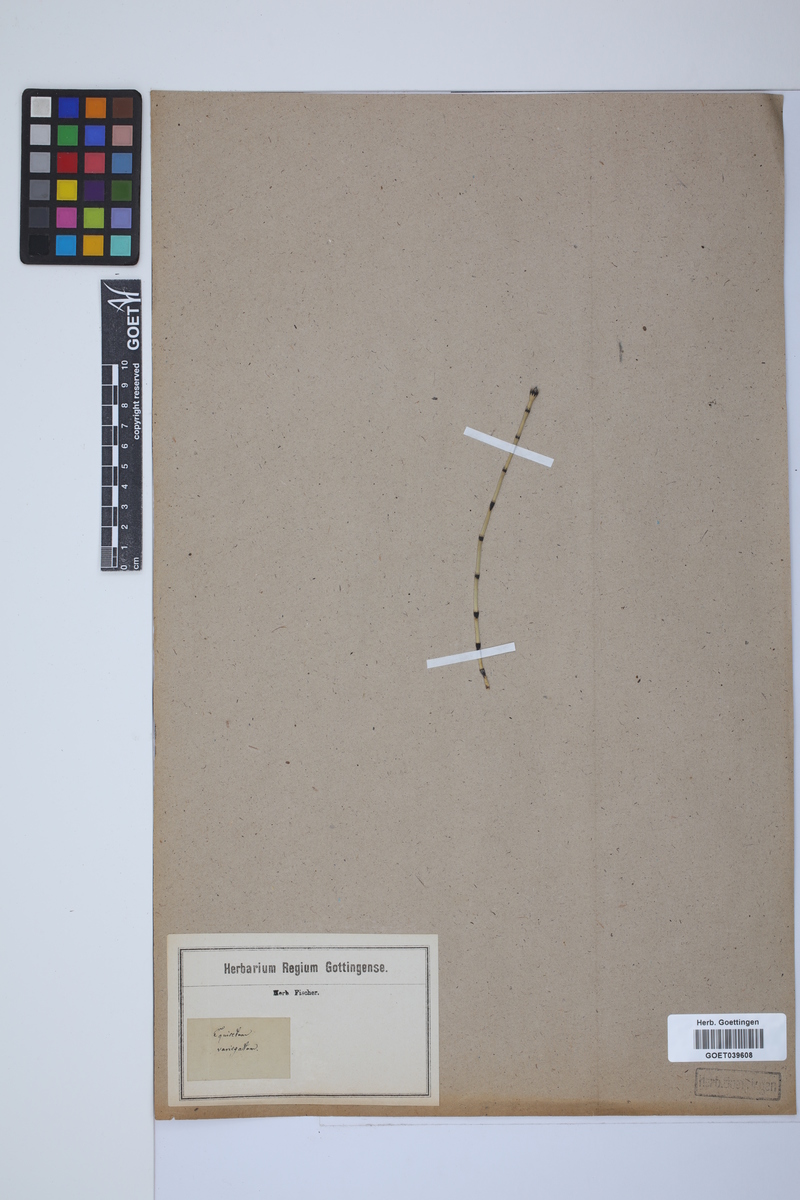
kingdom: Plantae
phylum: Tracheophyta
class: Polypodiopsida
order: Equisetales
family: Equisetaceae
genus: Equisetum
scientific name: Equisetum variegatum
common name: Variegated horsetail
